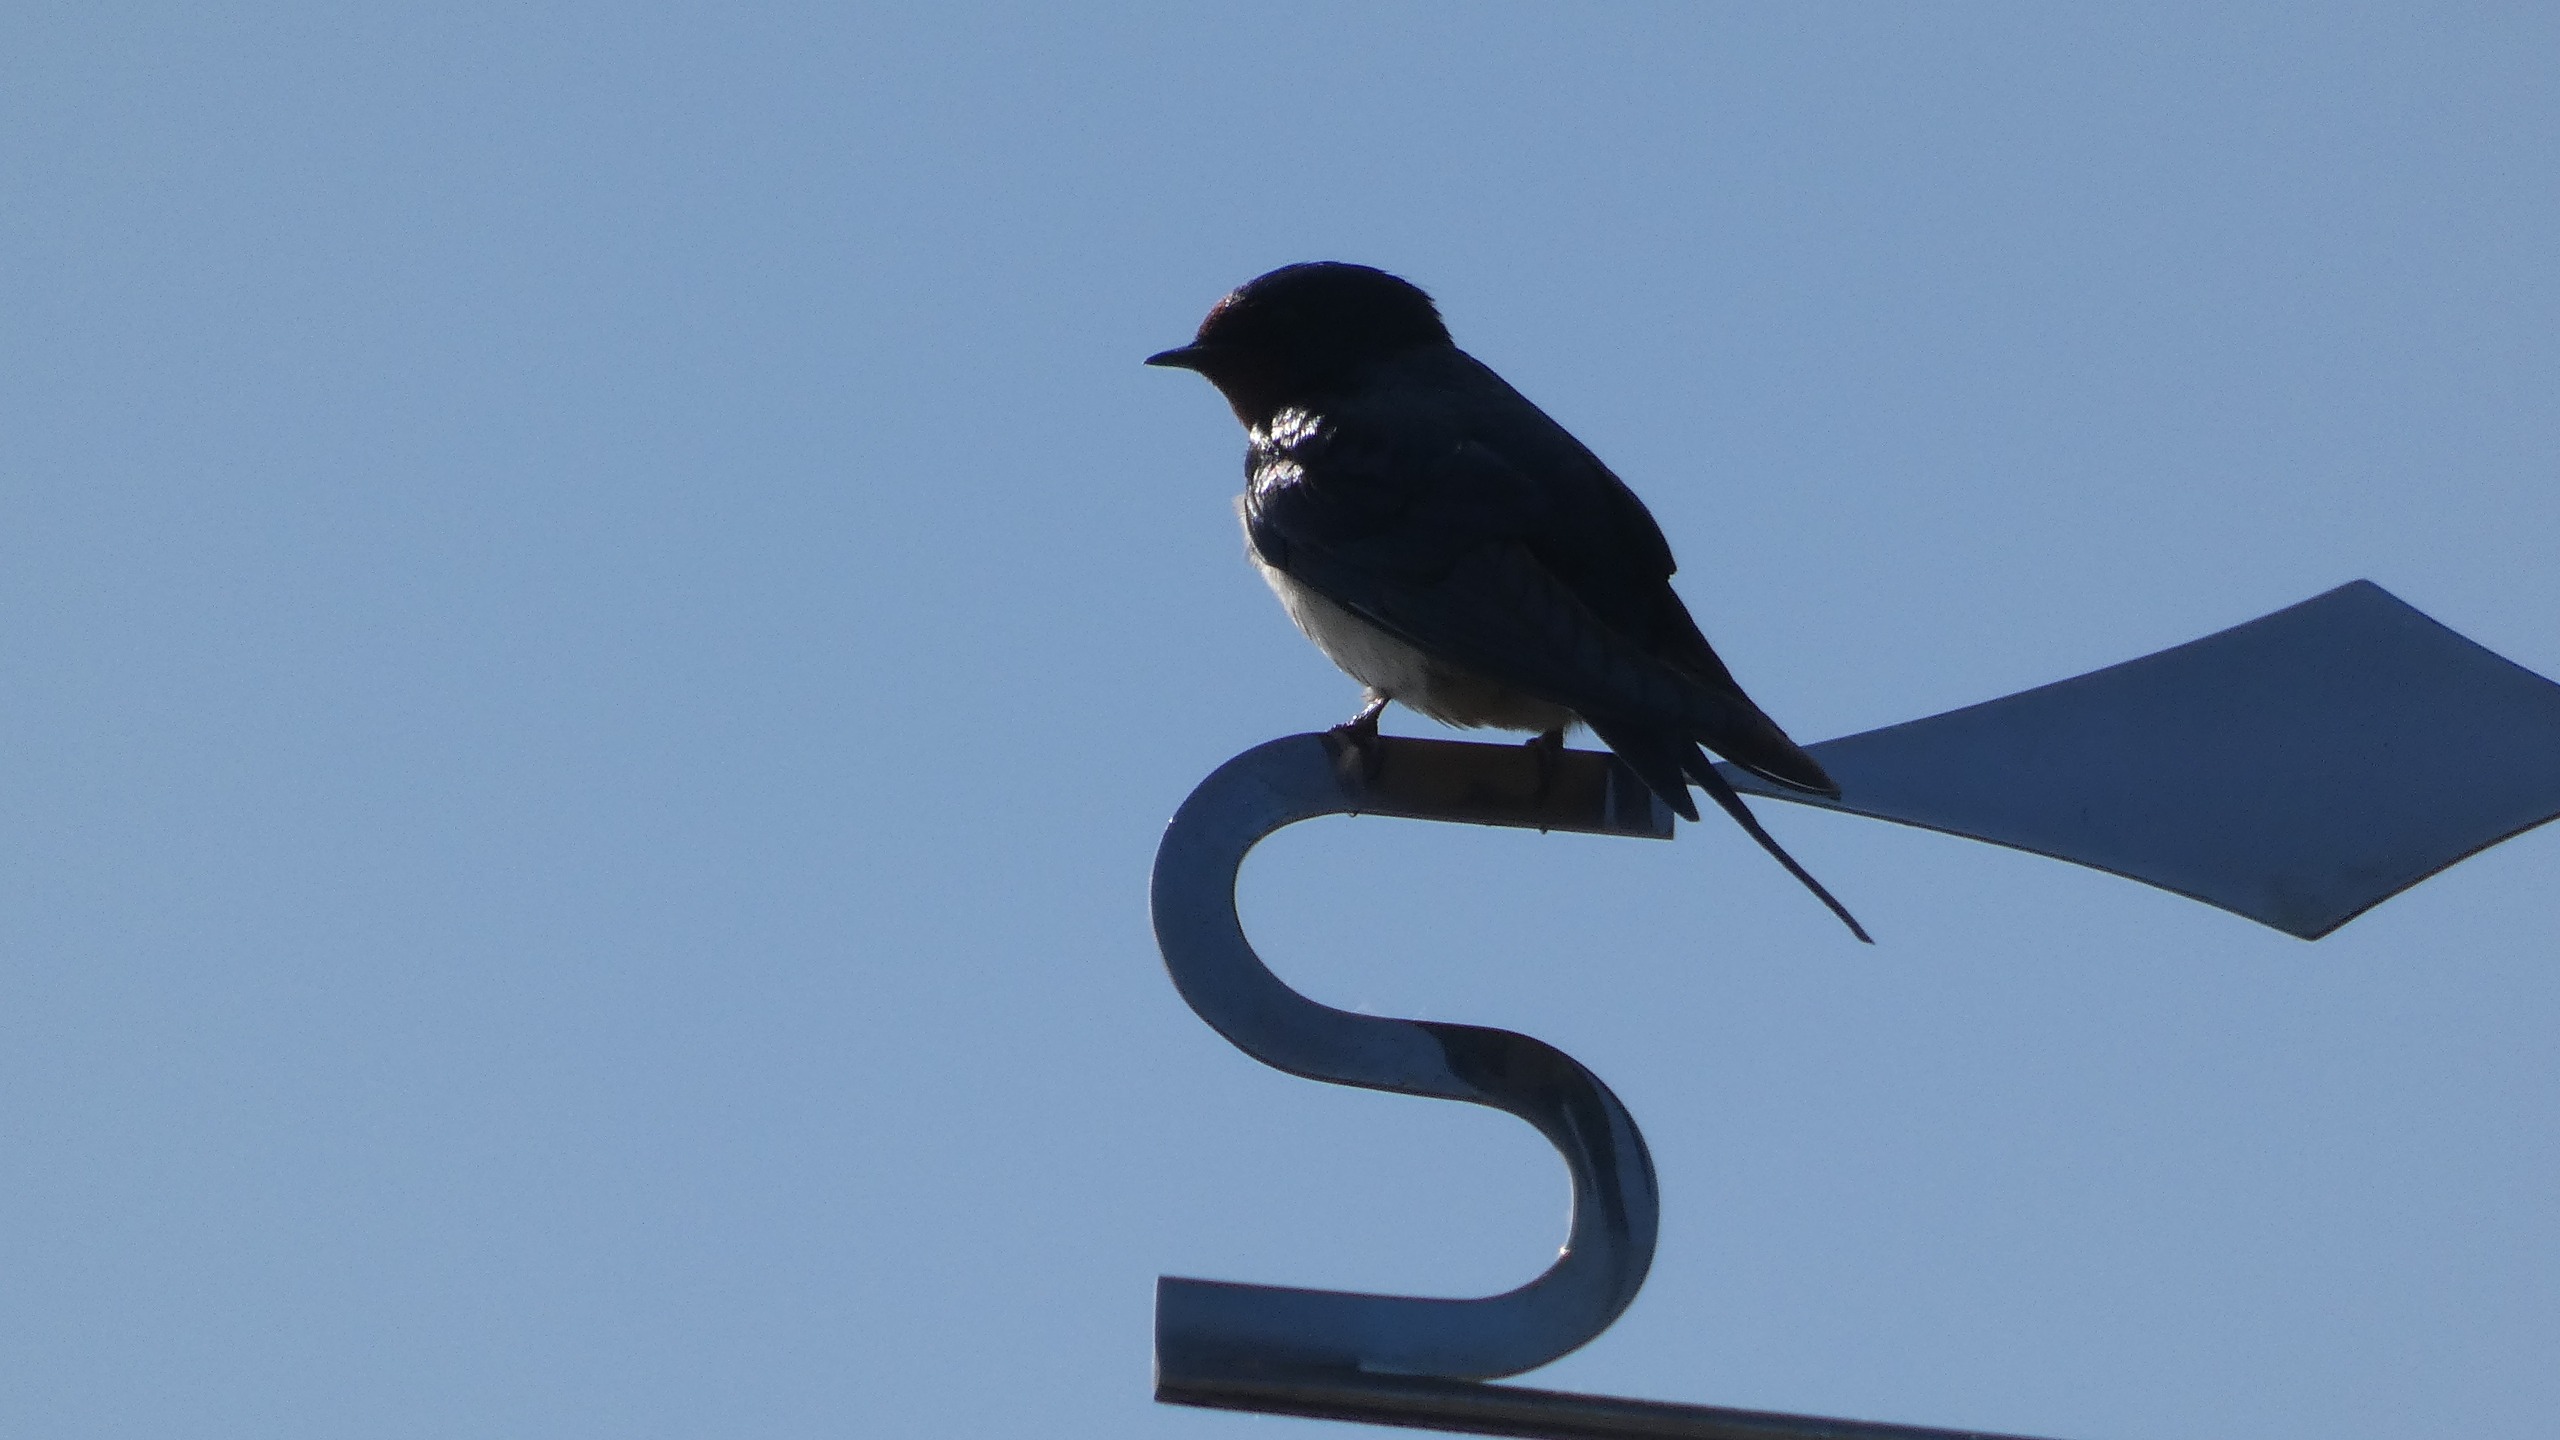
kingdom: Animalia
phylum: Chordata
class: Aves
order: Passeriformes
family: Hirundinidae
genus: Hirundo
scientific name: Hirundo rustica
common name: Landsvale
